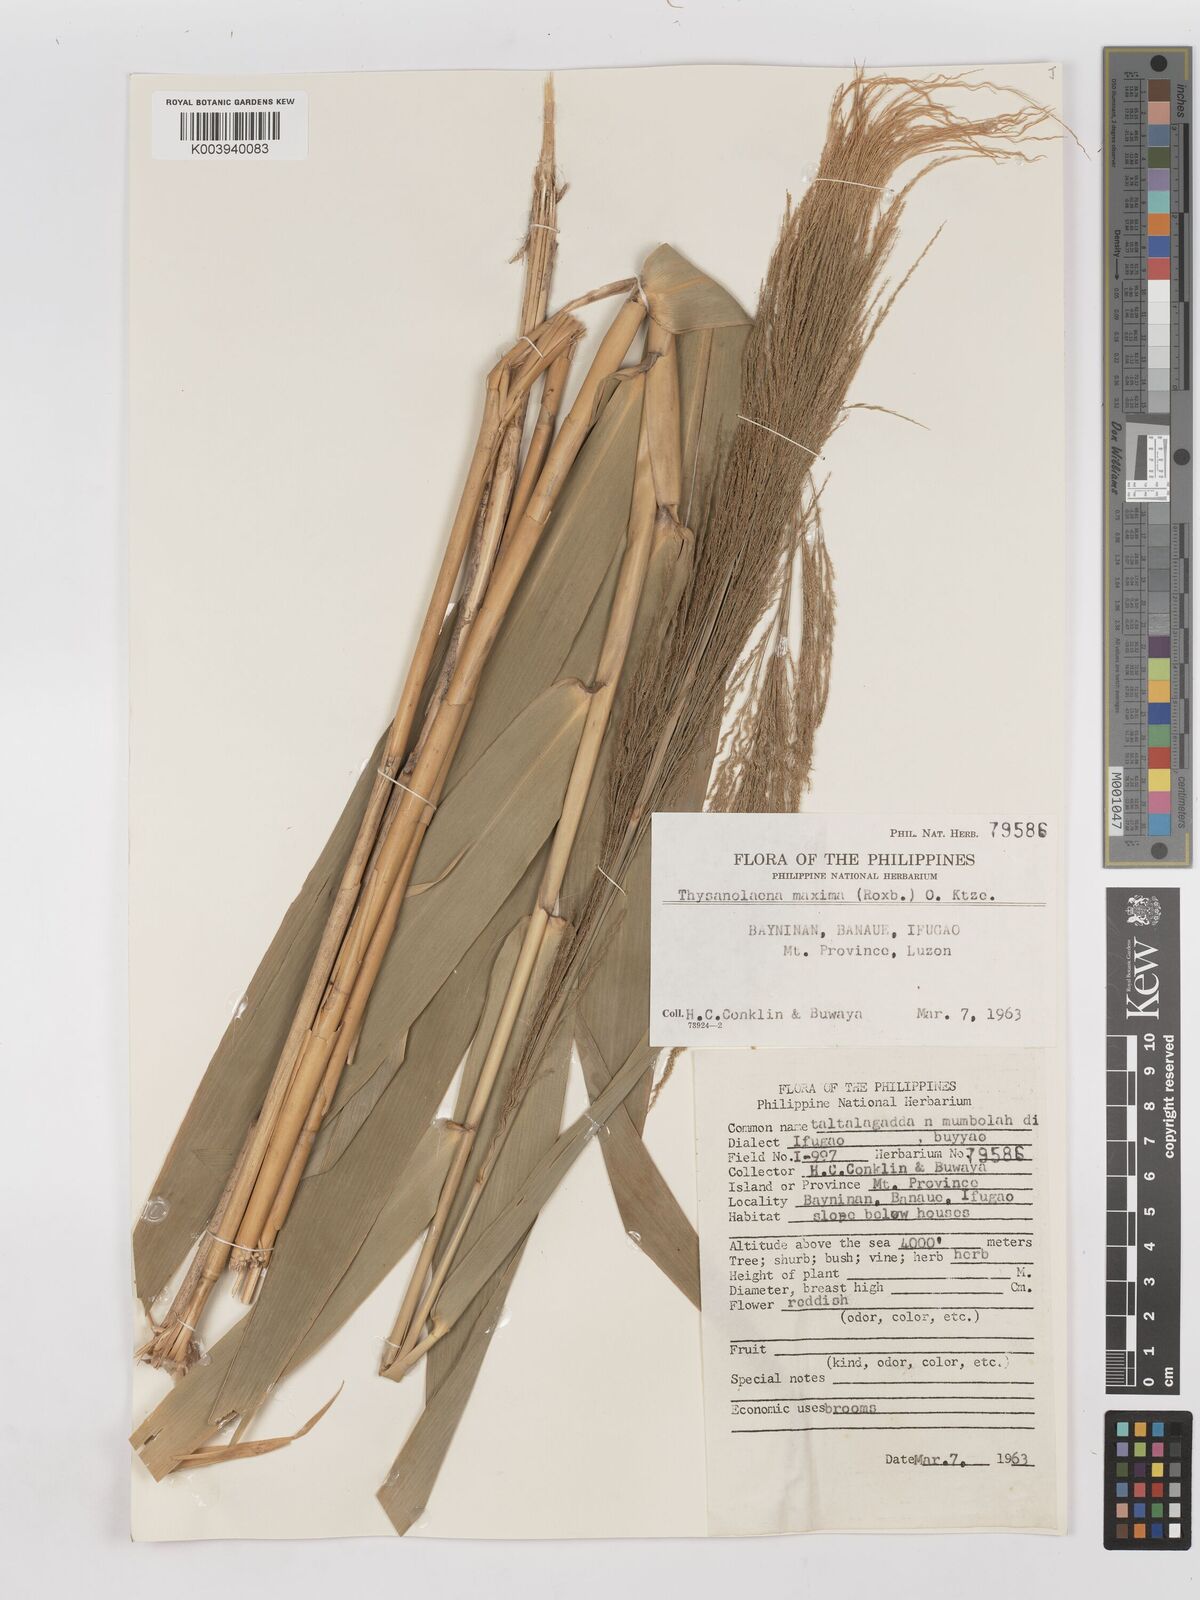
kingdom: Plantae
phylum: Tracheophyta
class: Liliopsida
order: Poales
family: Poaceae
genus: Thysanolaena
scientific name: Thysanolaena latifolia
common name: Tiger grass
